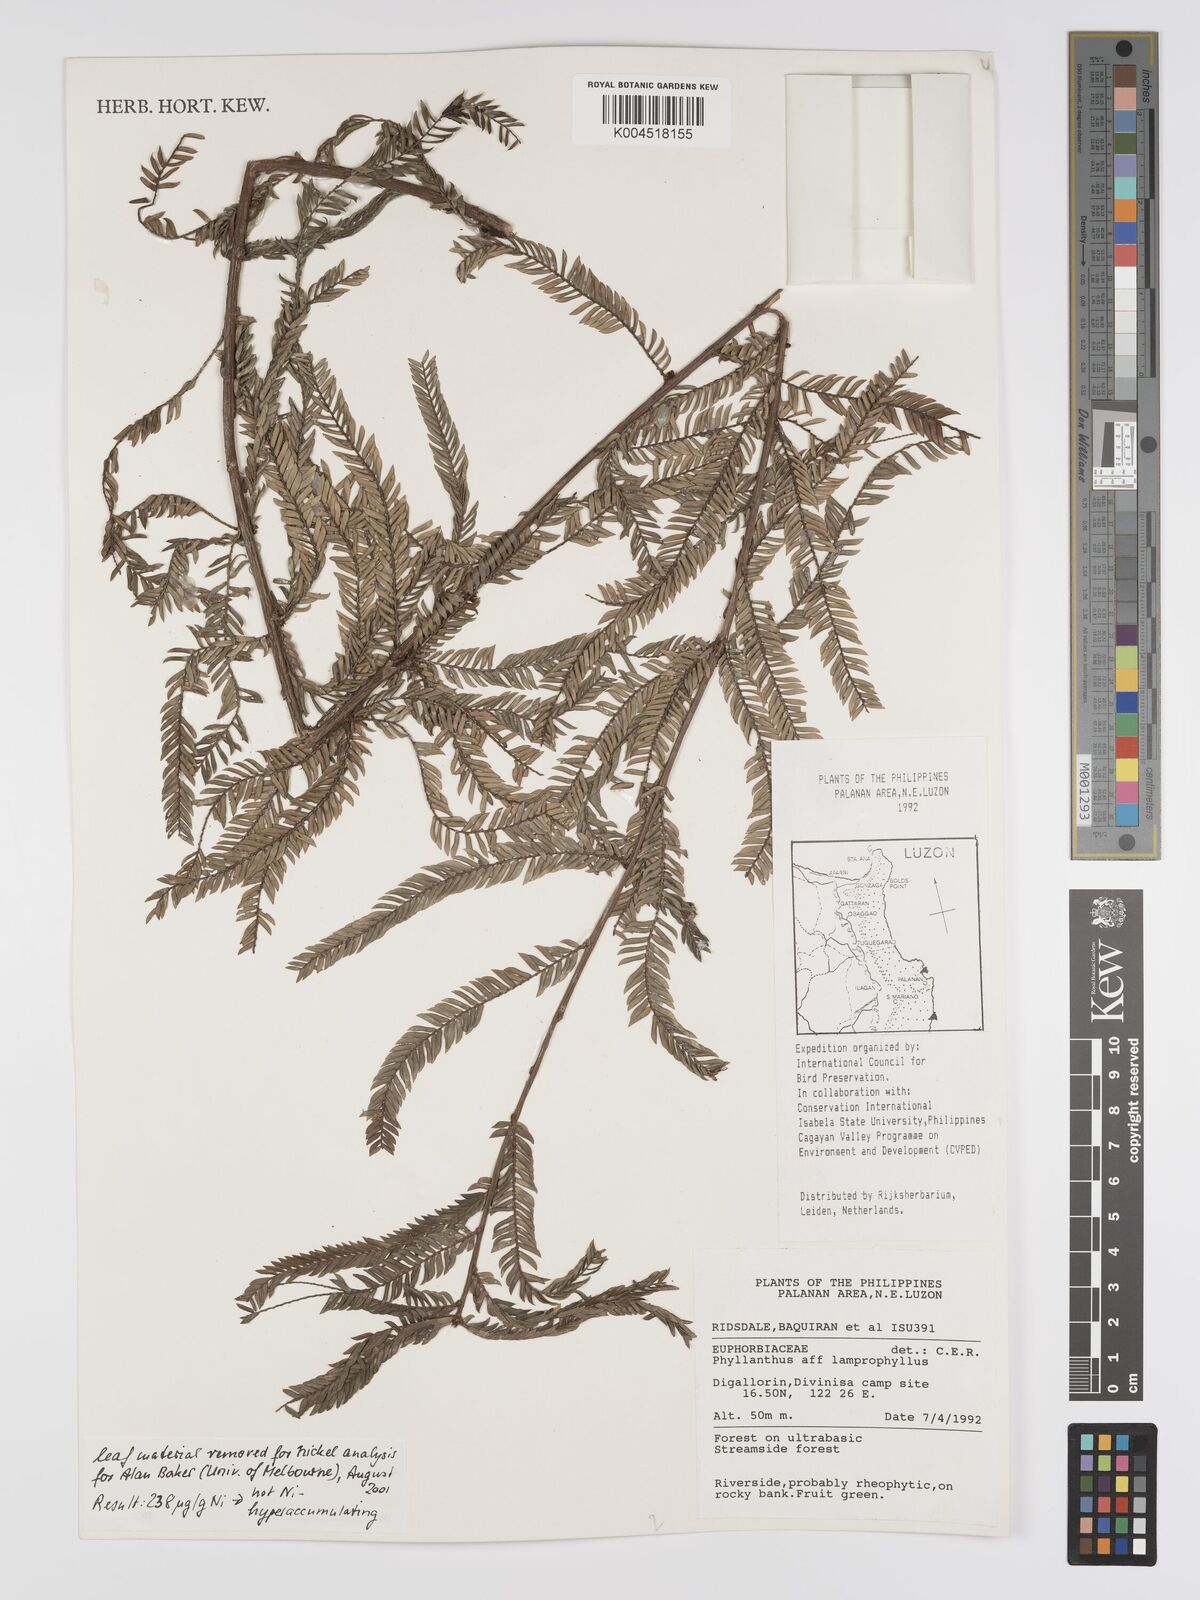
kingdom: Plantae
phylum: Tracheophyta
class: Magnoliopsida
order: Malpighiales
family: Phyllanthaceae
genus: Glochidion
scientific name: Glochidion lamprophyllum
